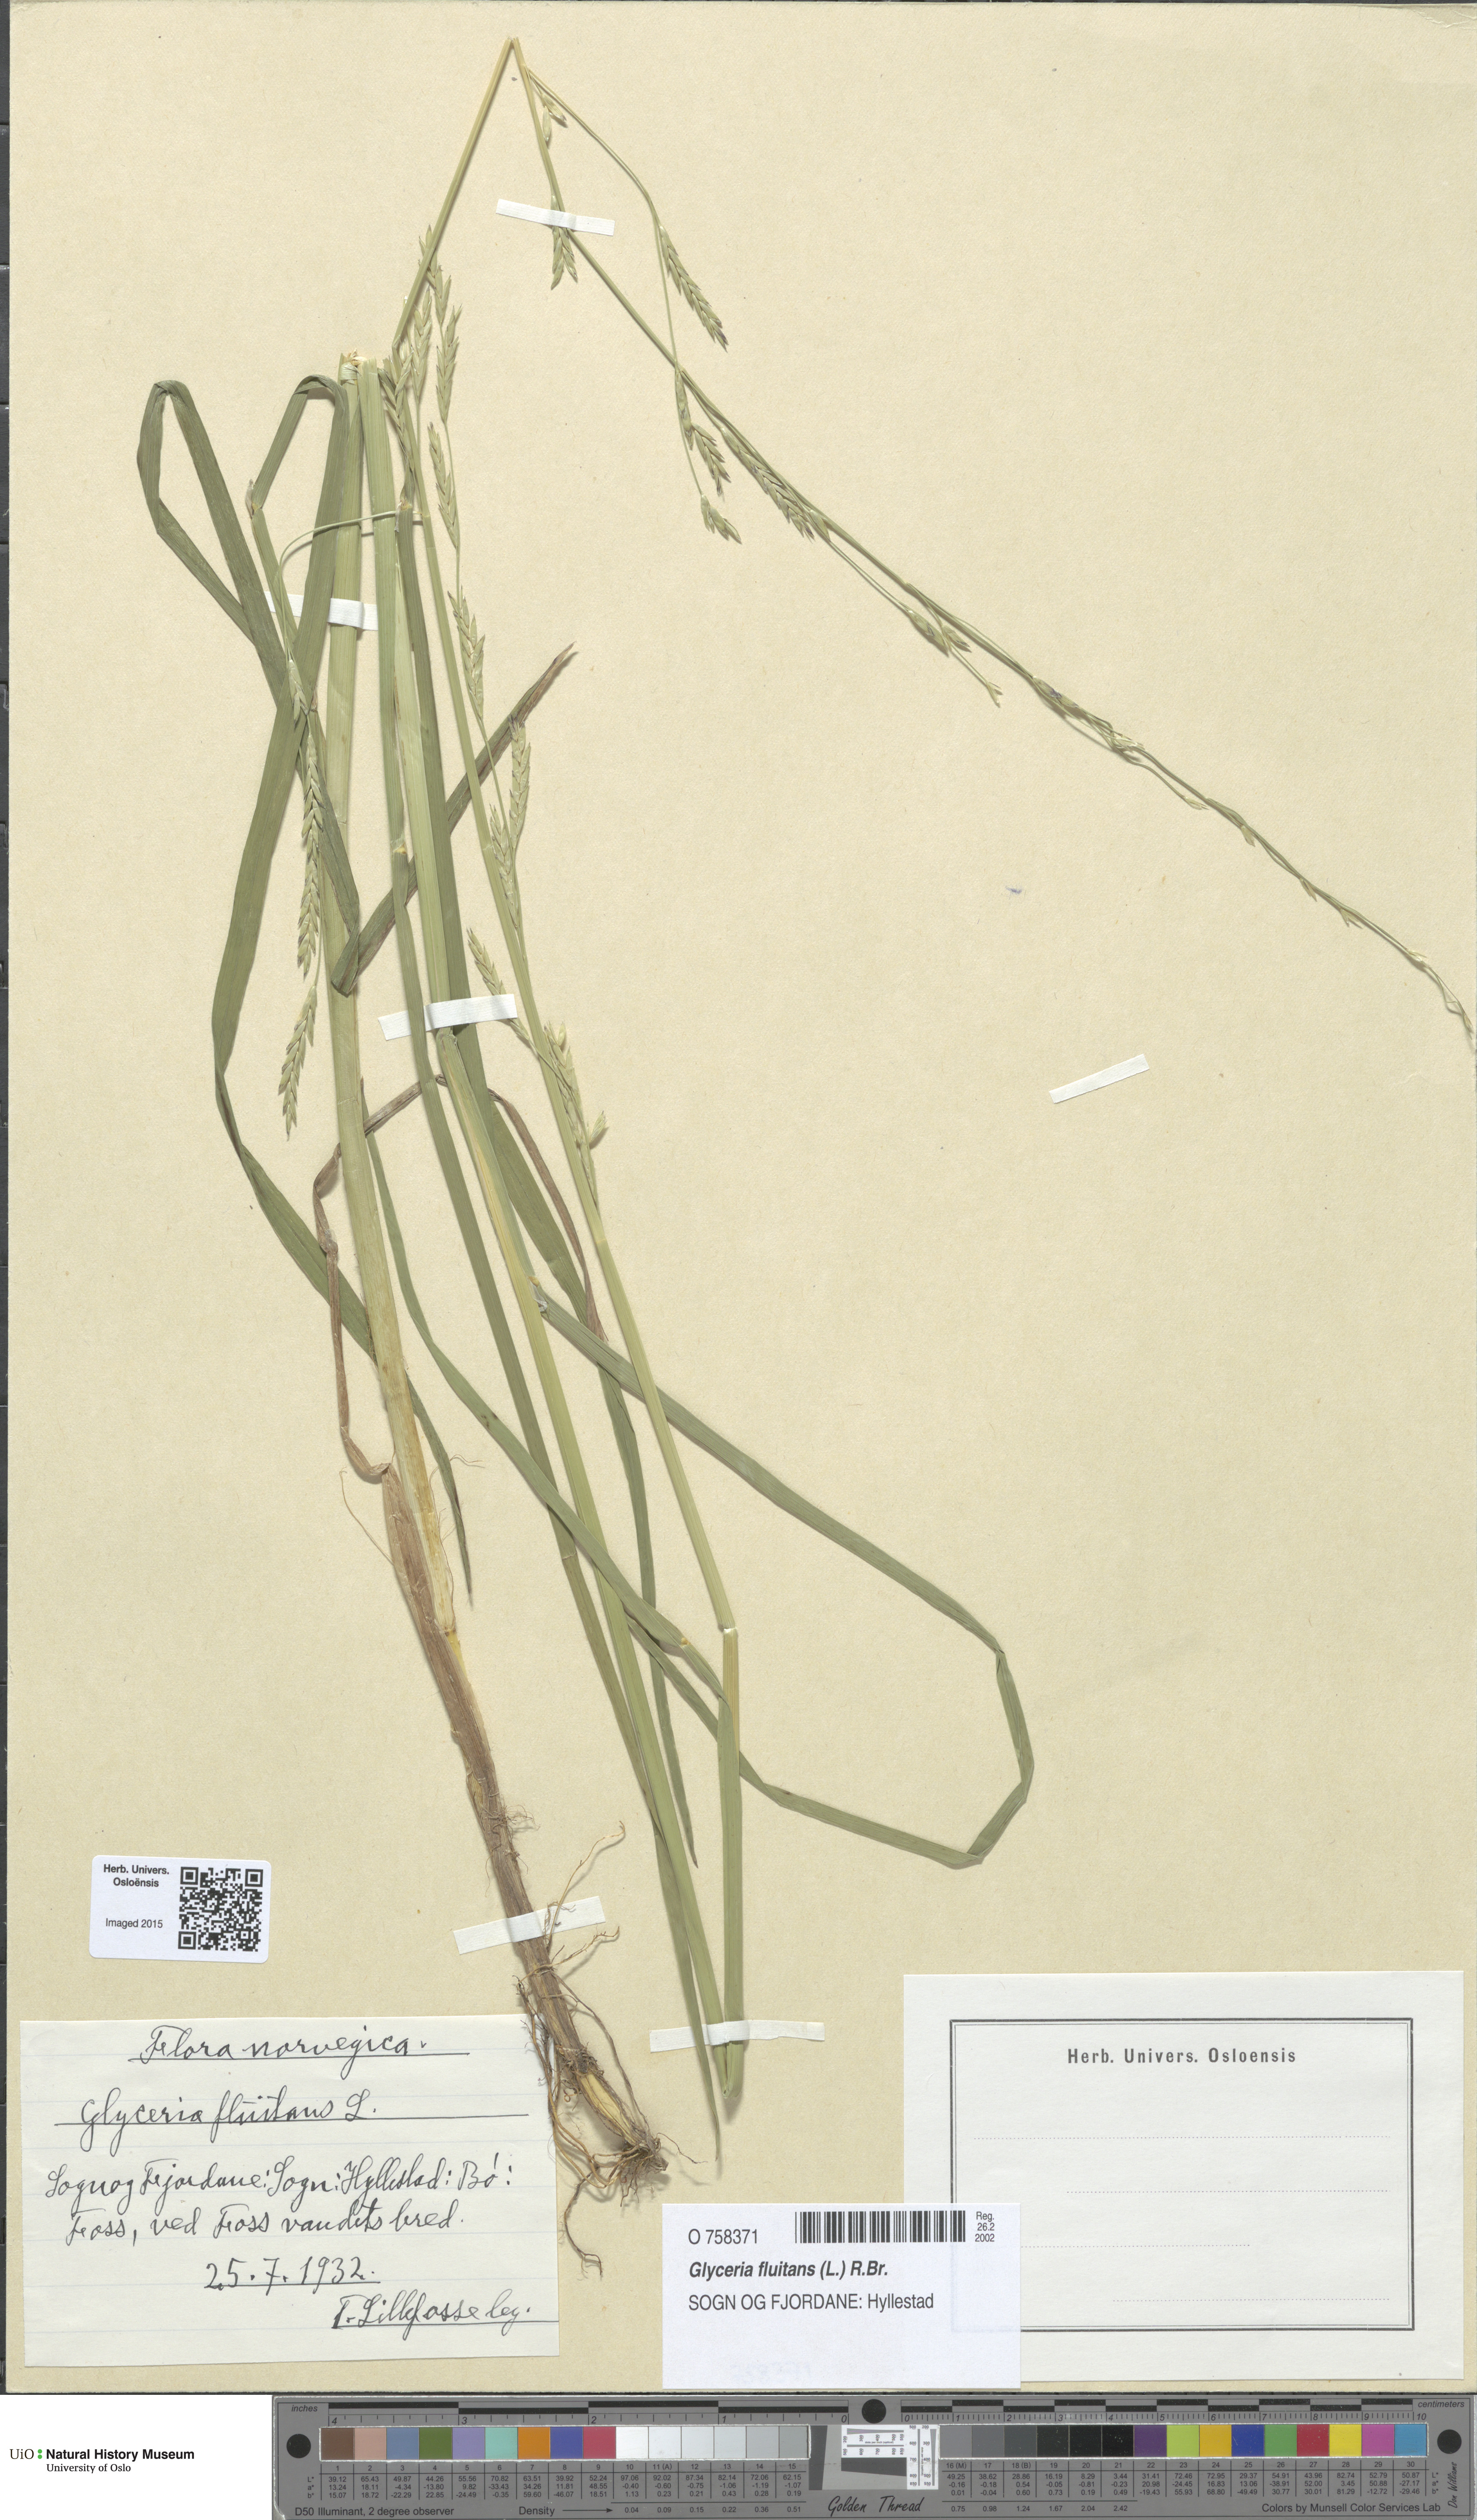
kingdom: Plantae
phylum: Tracheophyta
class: Liliopsida
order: Poales
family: Poaceae
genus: Glyceria
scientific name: Glyceria fluitans
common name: Floating sweet-grass
